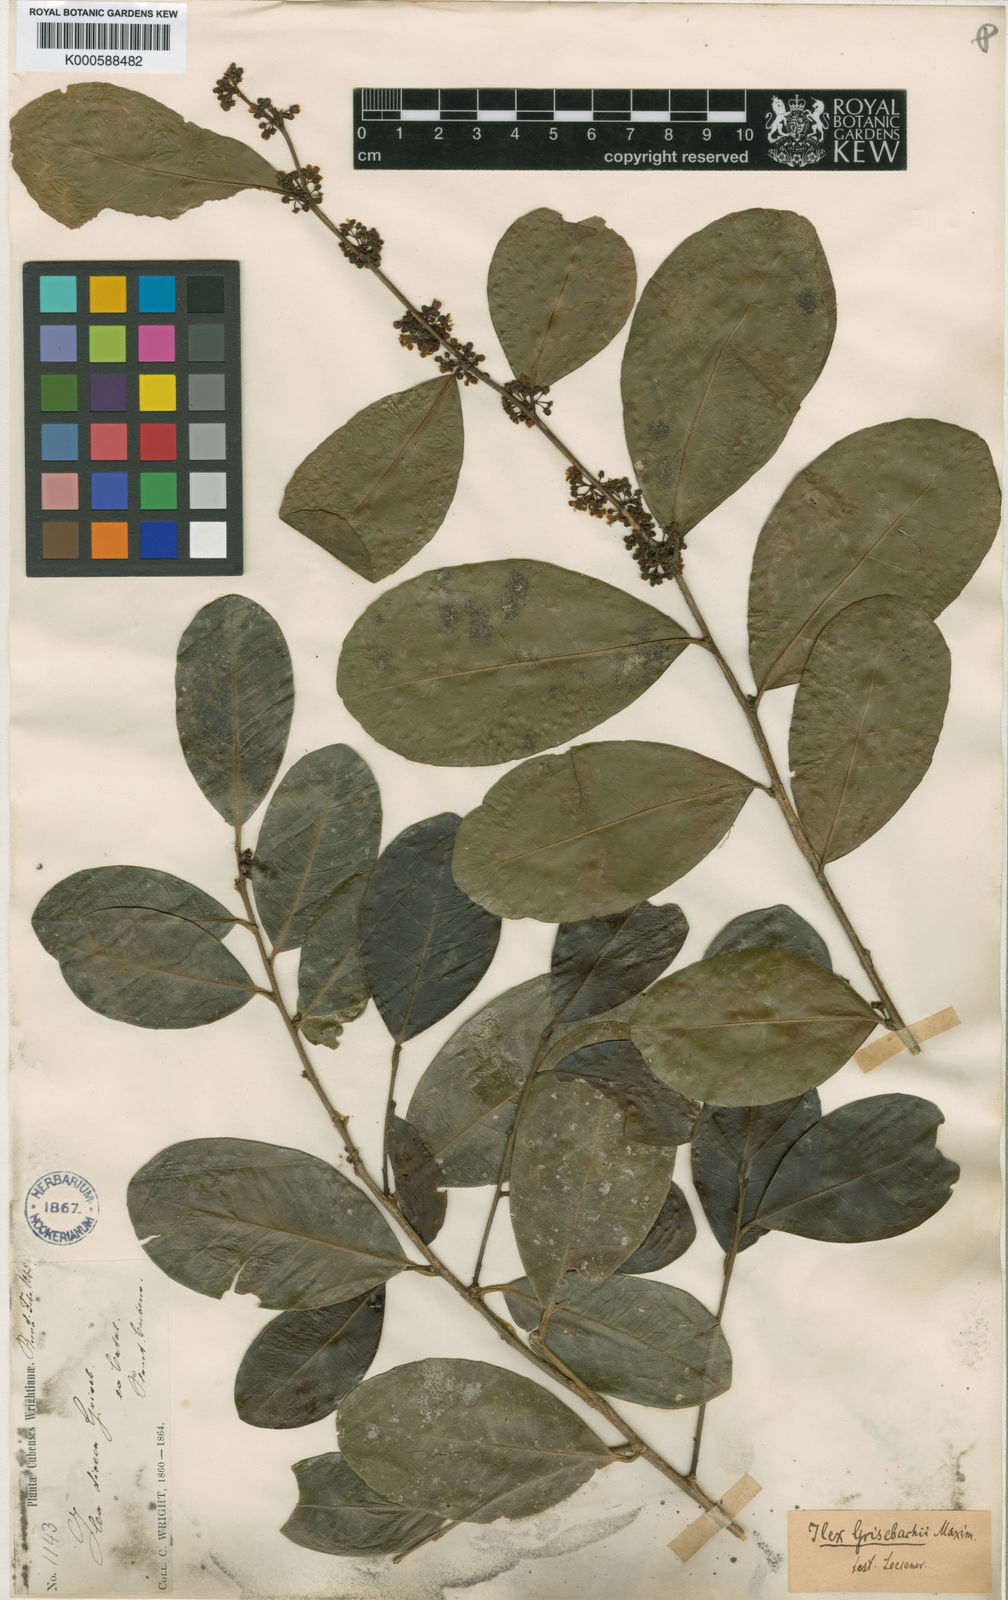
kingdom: Plantae
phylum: Tracheophyta
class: Magnoliopsida
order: Aquifoliales
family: Aquifoliaceae
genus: Ilex
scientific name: Ilex nitida
